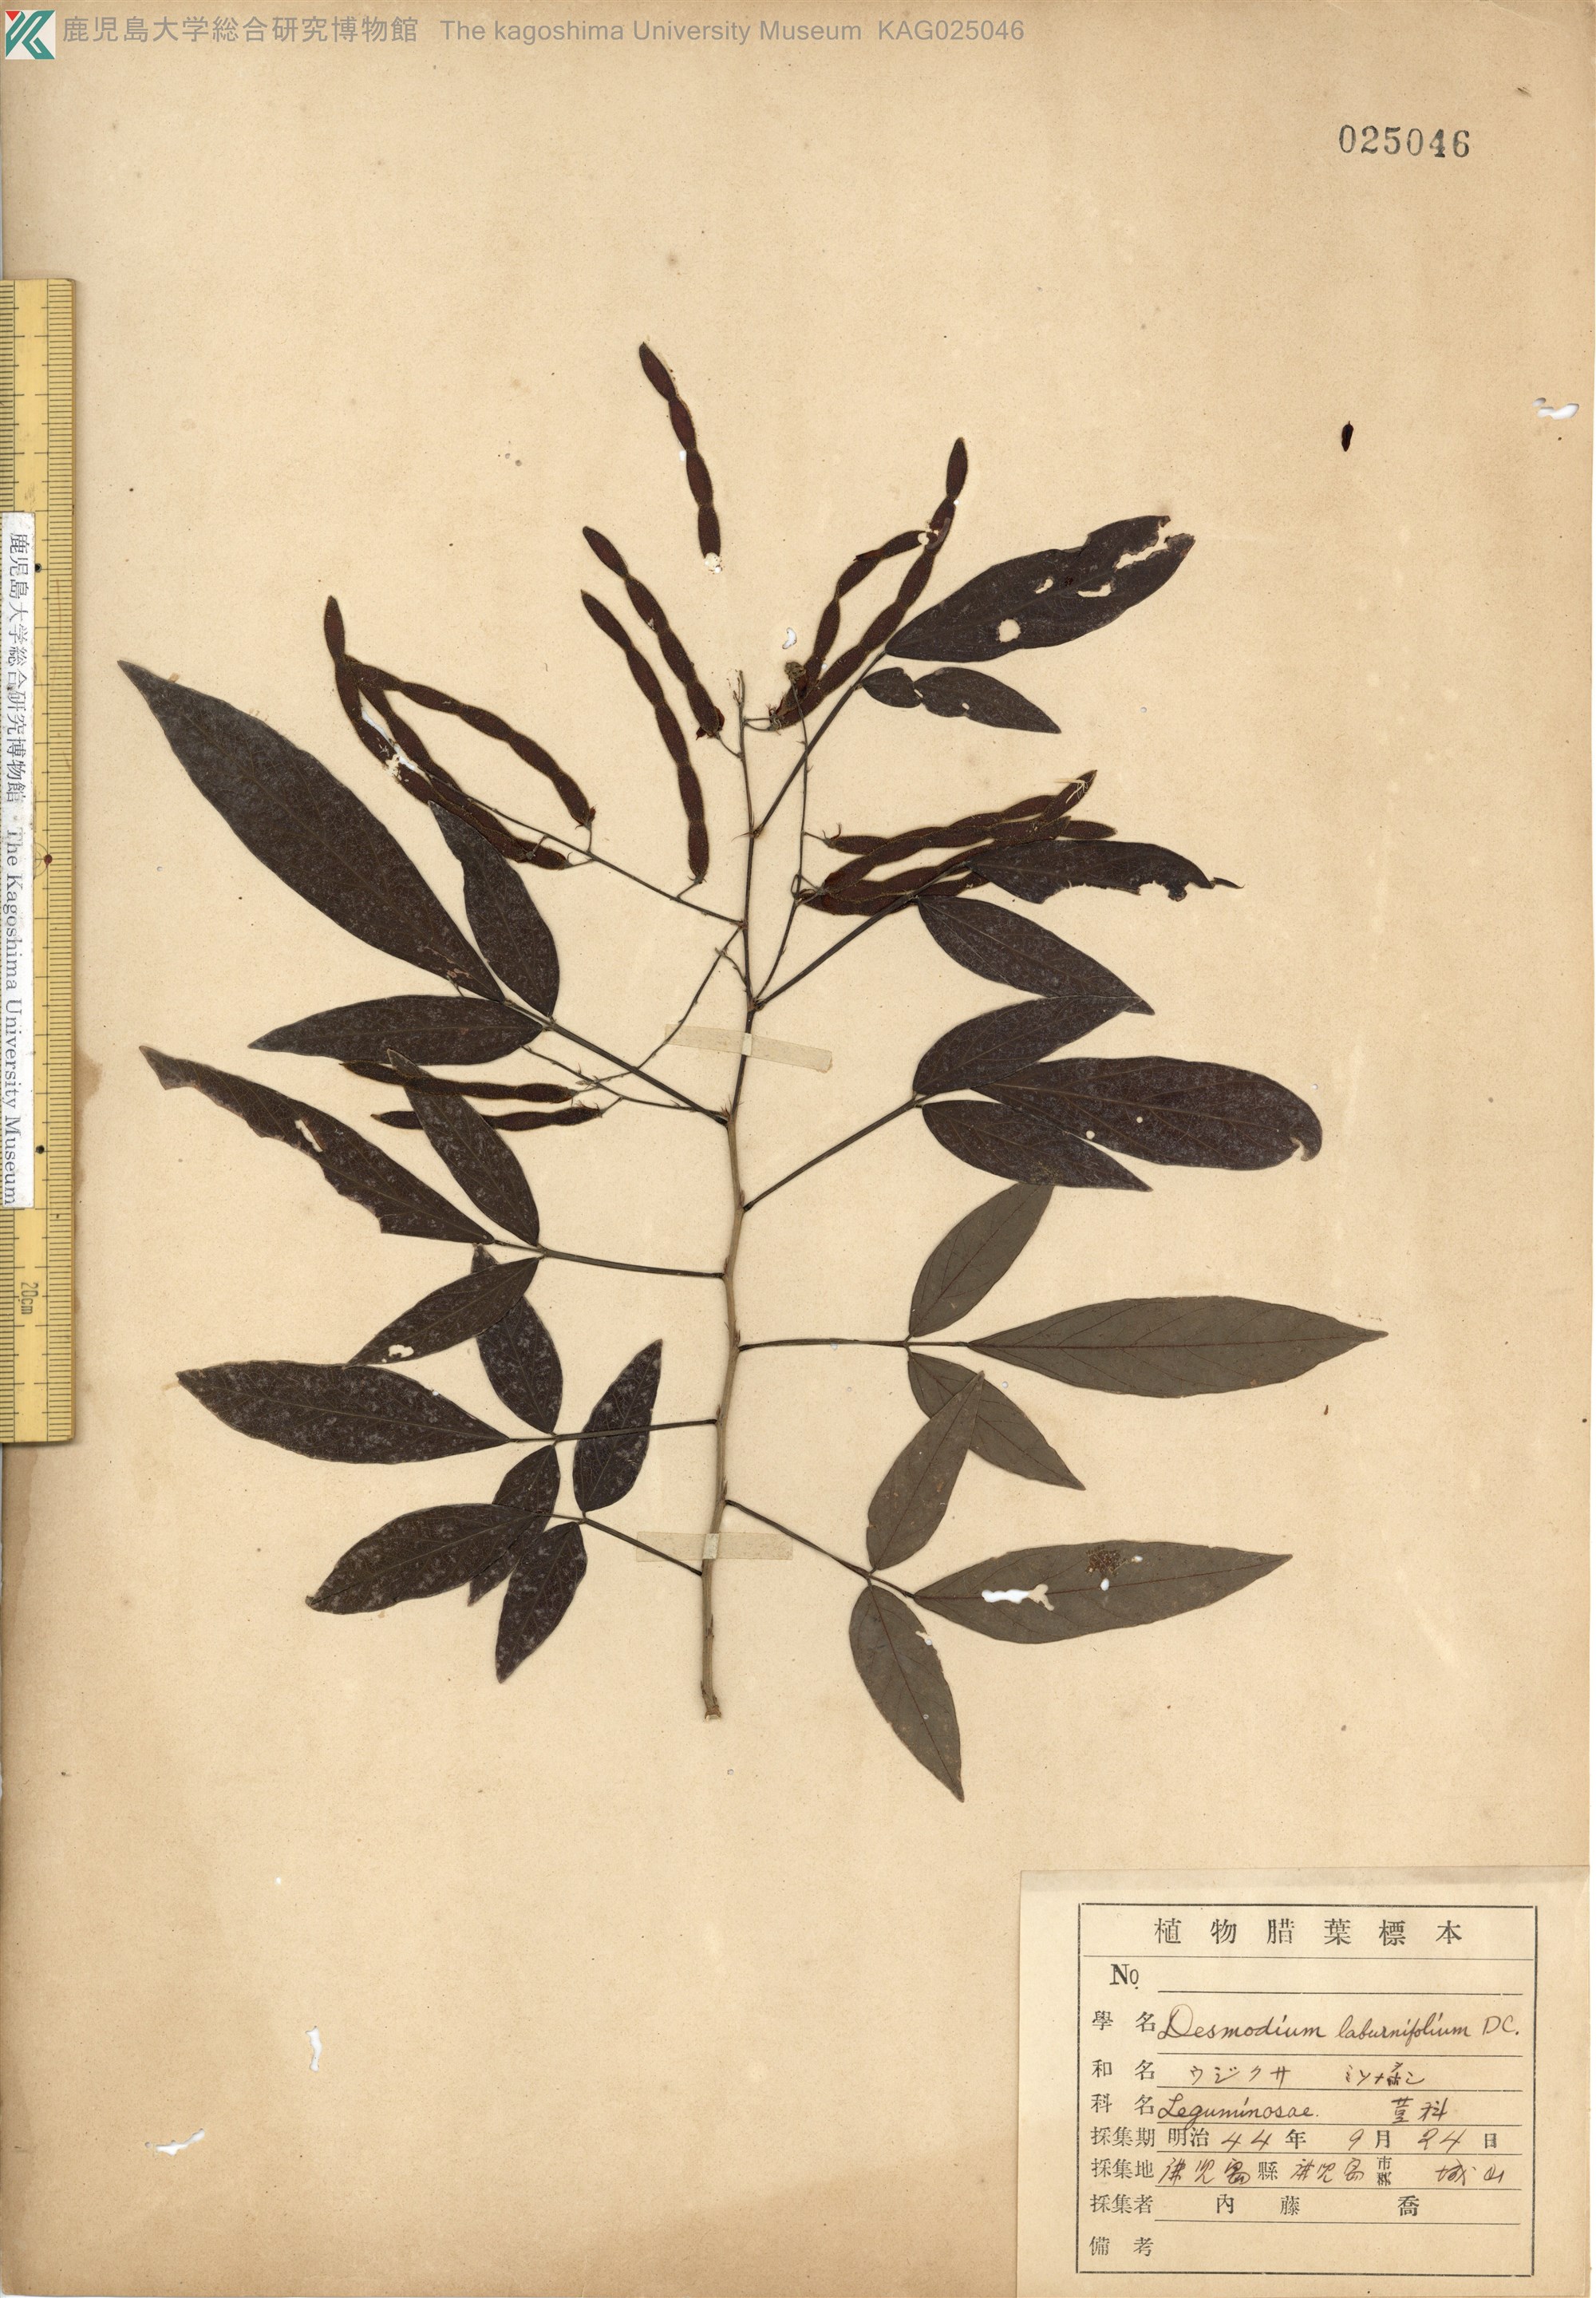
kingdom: Plantae
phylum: Tracheophyta
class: Magnoliopsida
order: Fabales
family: Fabaceae
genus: Ohwia
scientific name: Ohwia caudata
